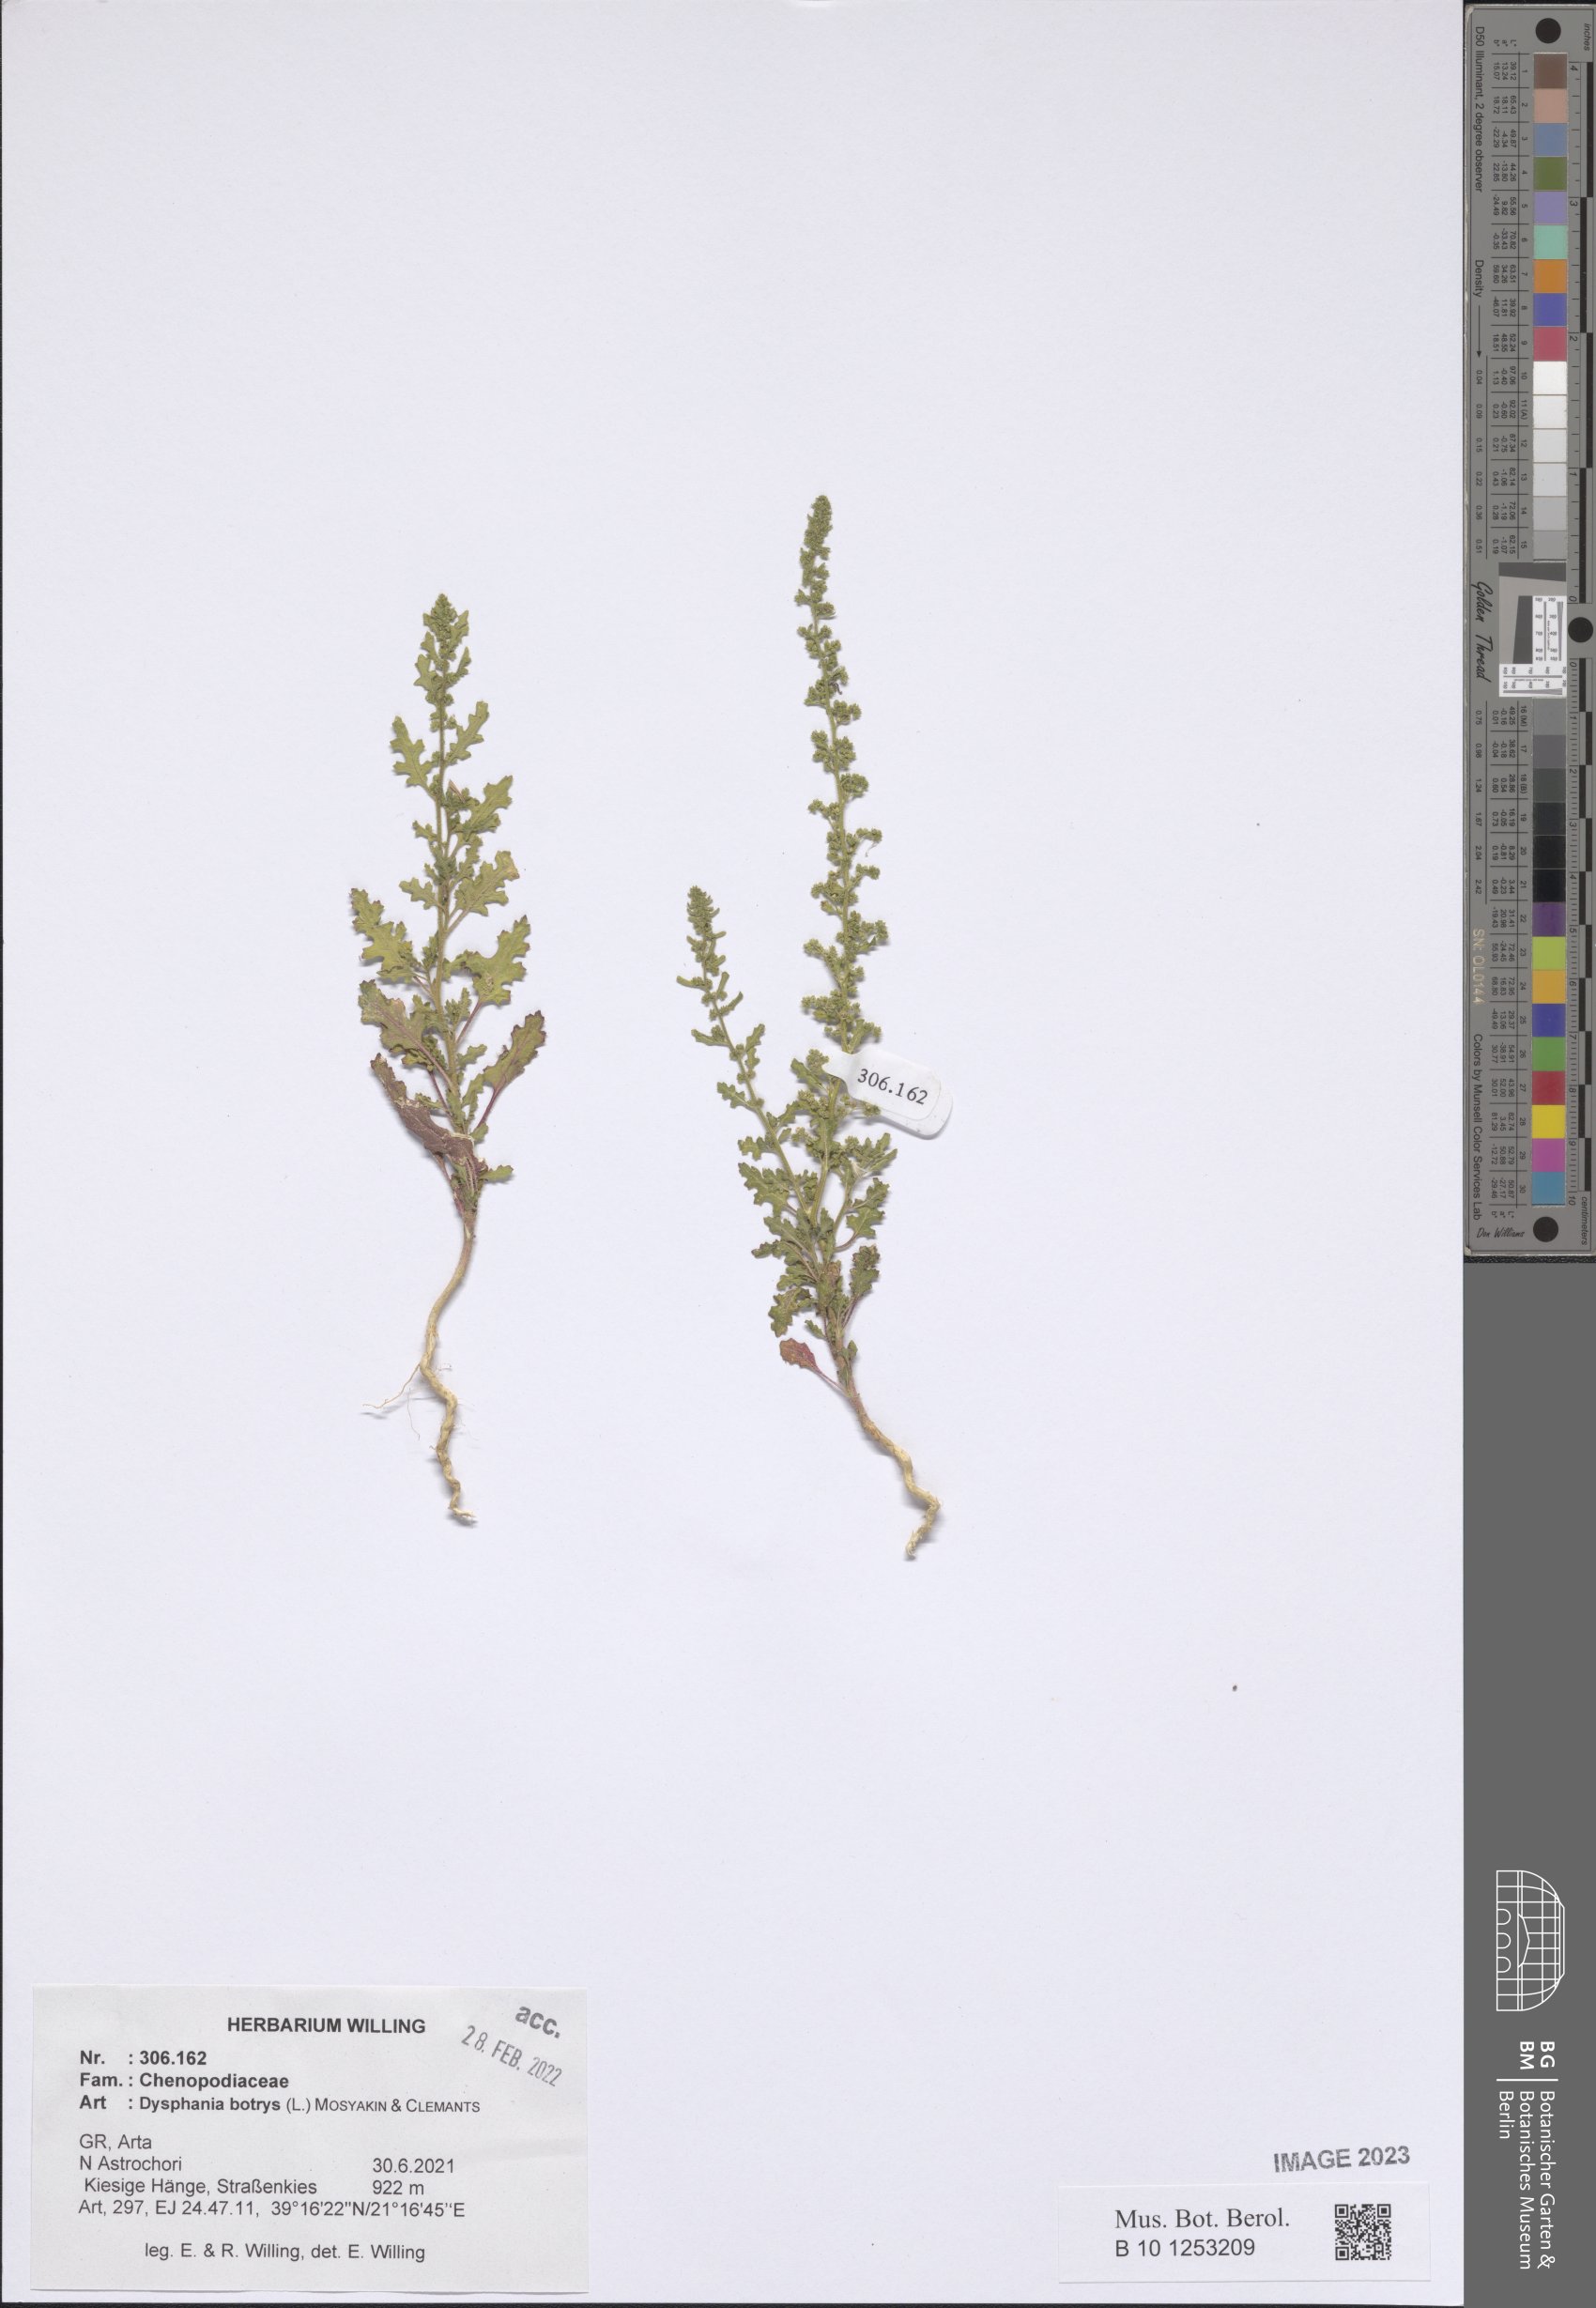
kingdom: Plantae
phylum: Tracheophyta
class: Magnoliopsida
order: Caryophyllales
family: Amaranthaceae
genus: Dysphania
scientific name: Dysphania botrys
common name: Feather-geranium
